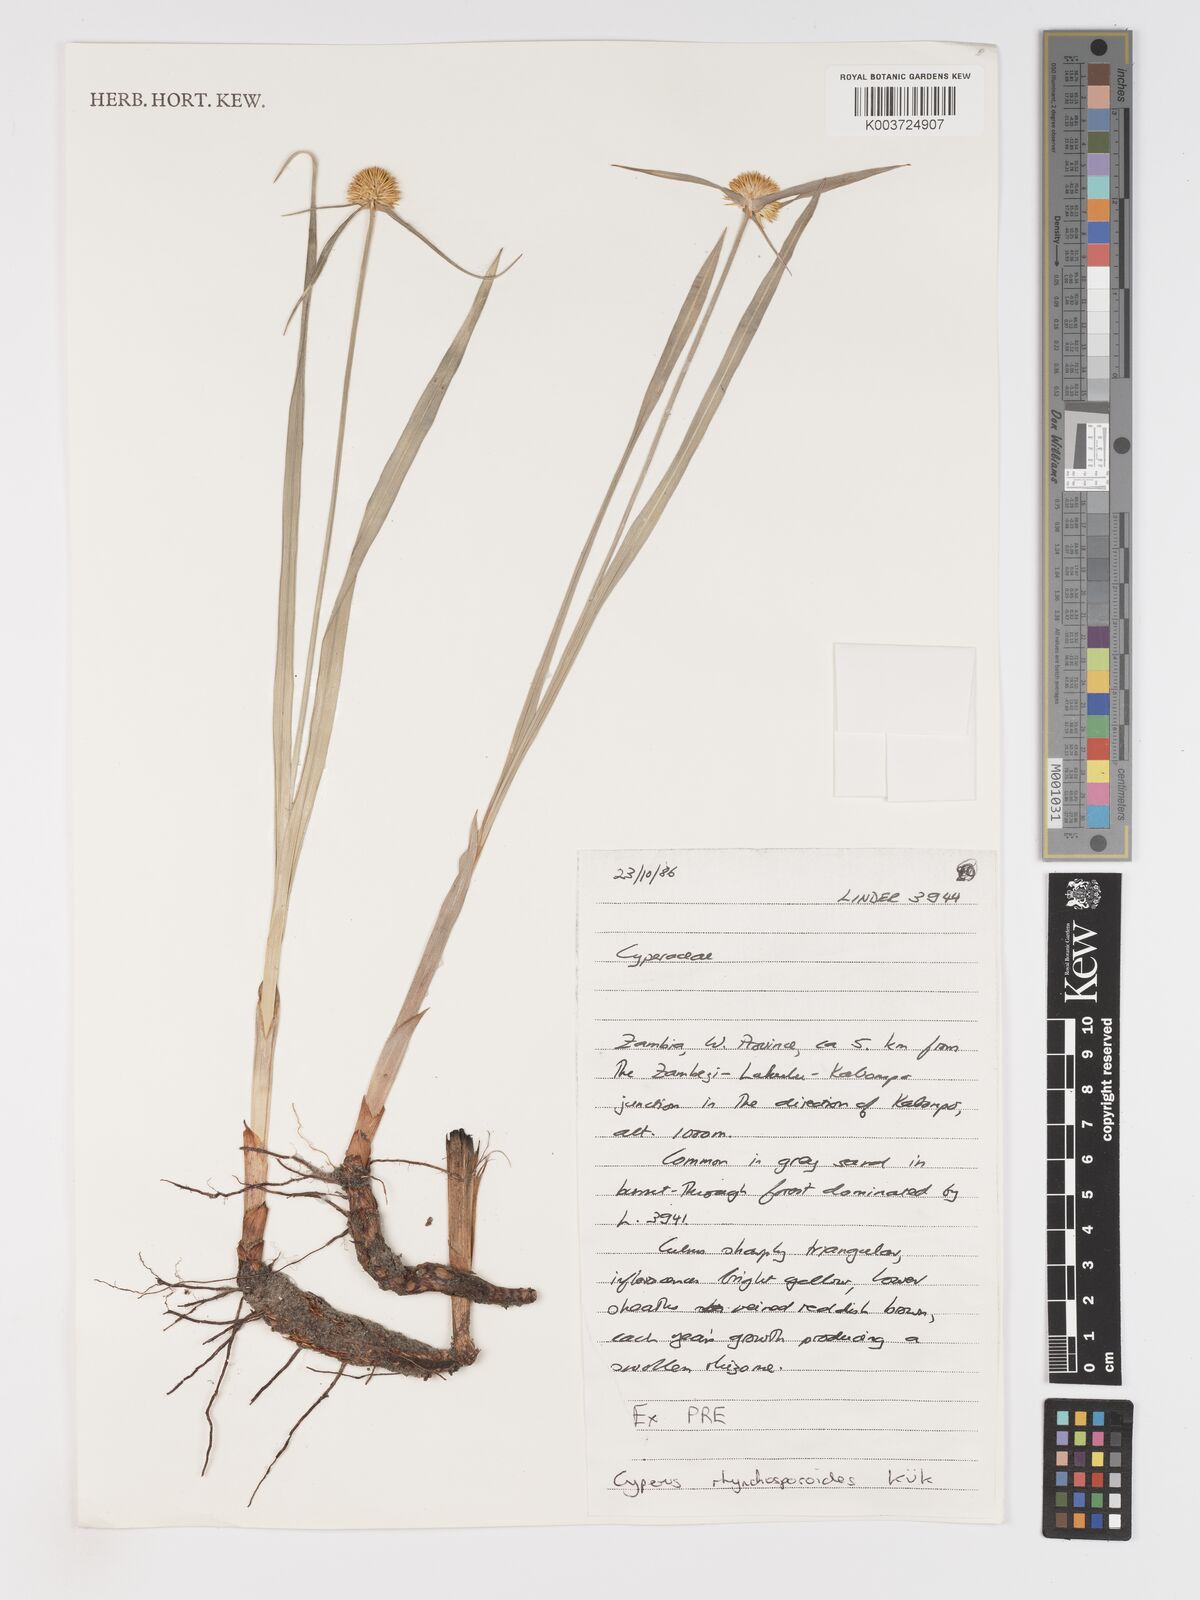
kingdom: Plantae
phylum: Tracheophyta
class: Liliopsida
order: Poales
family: Cyperaceae
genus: Cyperus
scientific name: Cyperus altochrysocephalus
